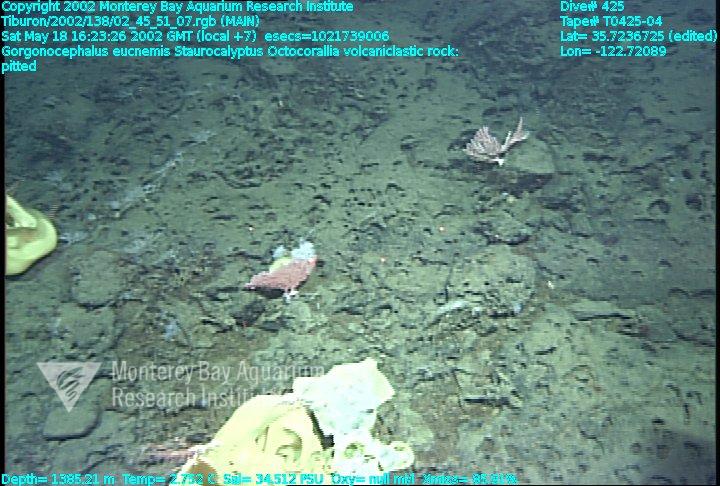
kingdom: Animalia
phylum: Porifera
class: Hexactinellida
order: Lyssacinosida
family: Rossellidae
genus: Staurocalyptus
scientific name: Staurocalyptus
